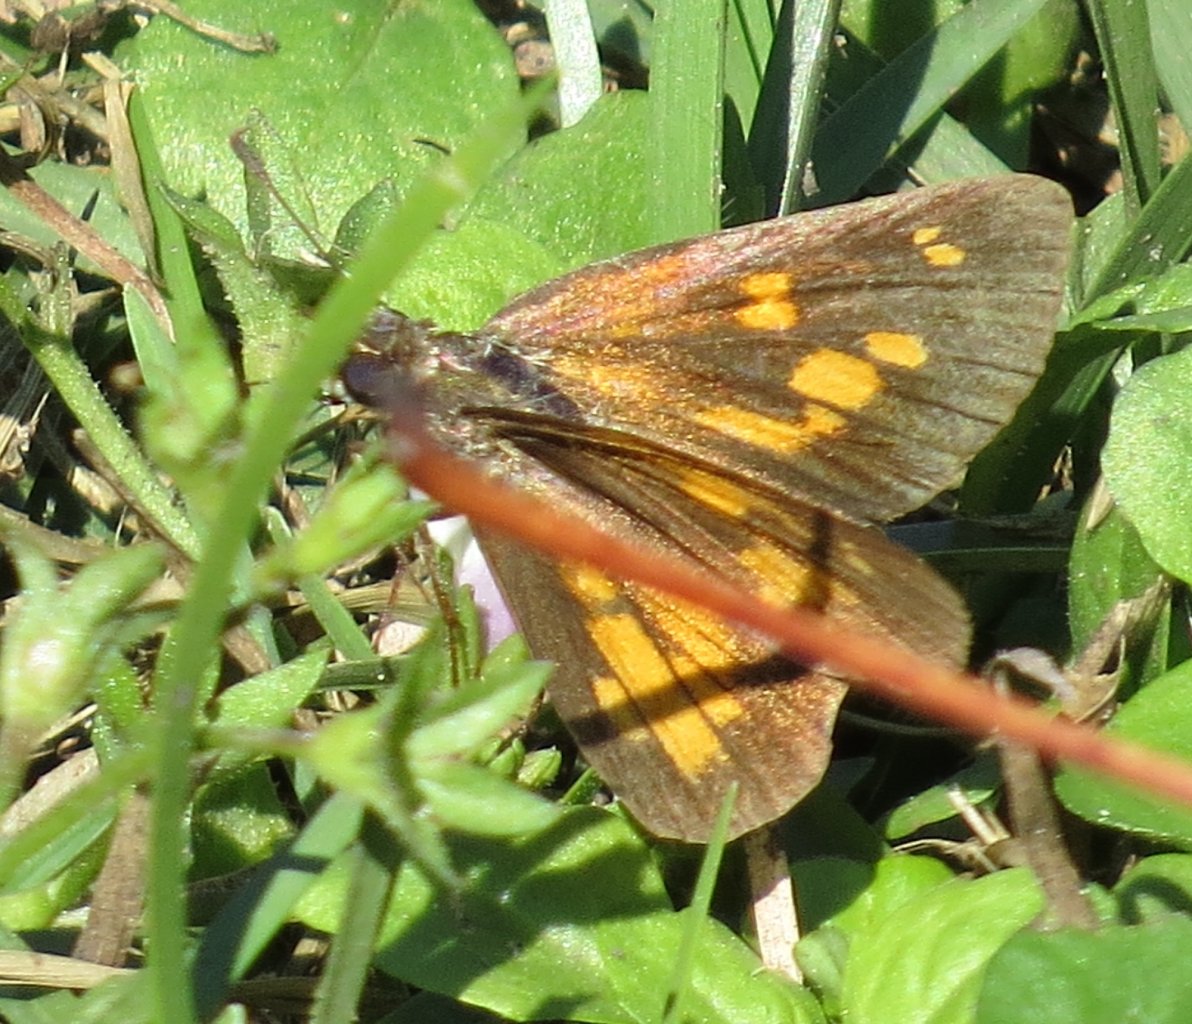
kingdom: Animalia
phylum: Arthropoda
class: Insecta
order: Lepidoptera
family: Hesperiidae
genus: Poanes
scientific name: Poanes viator
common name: Broad-winged Skipper
